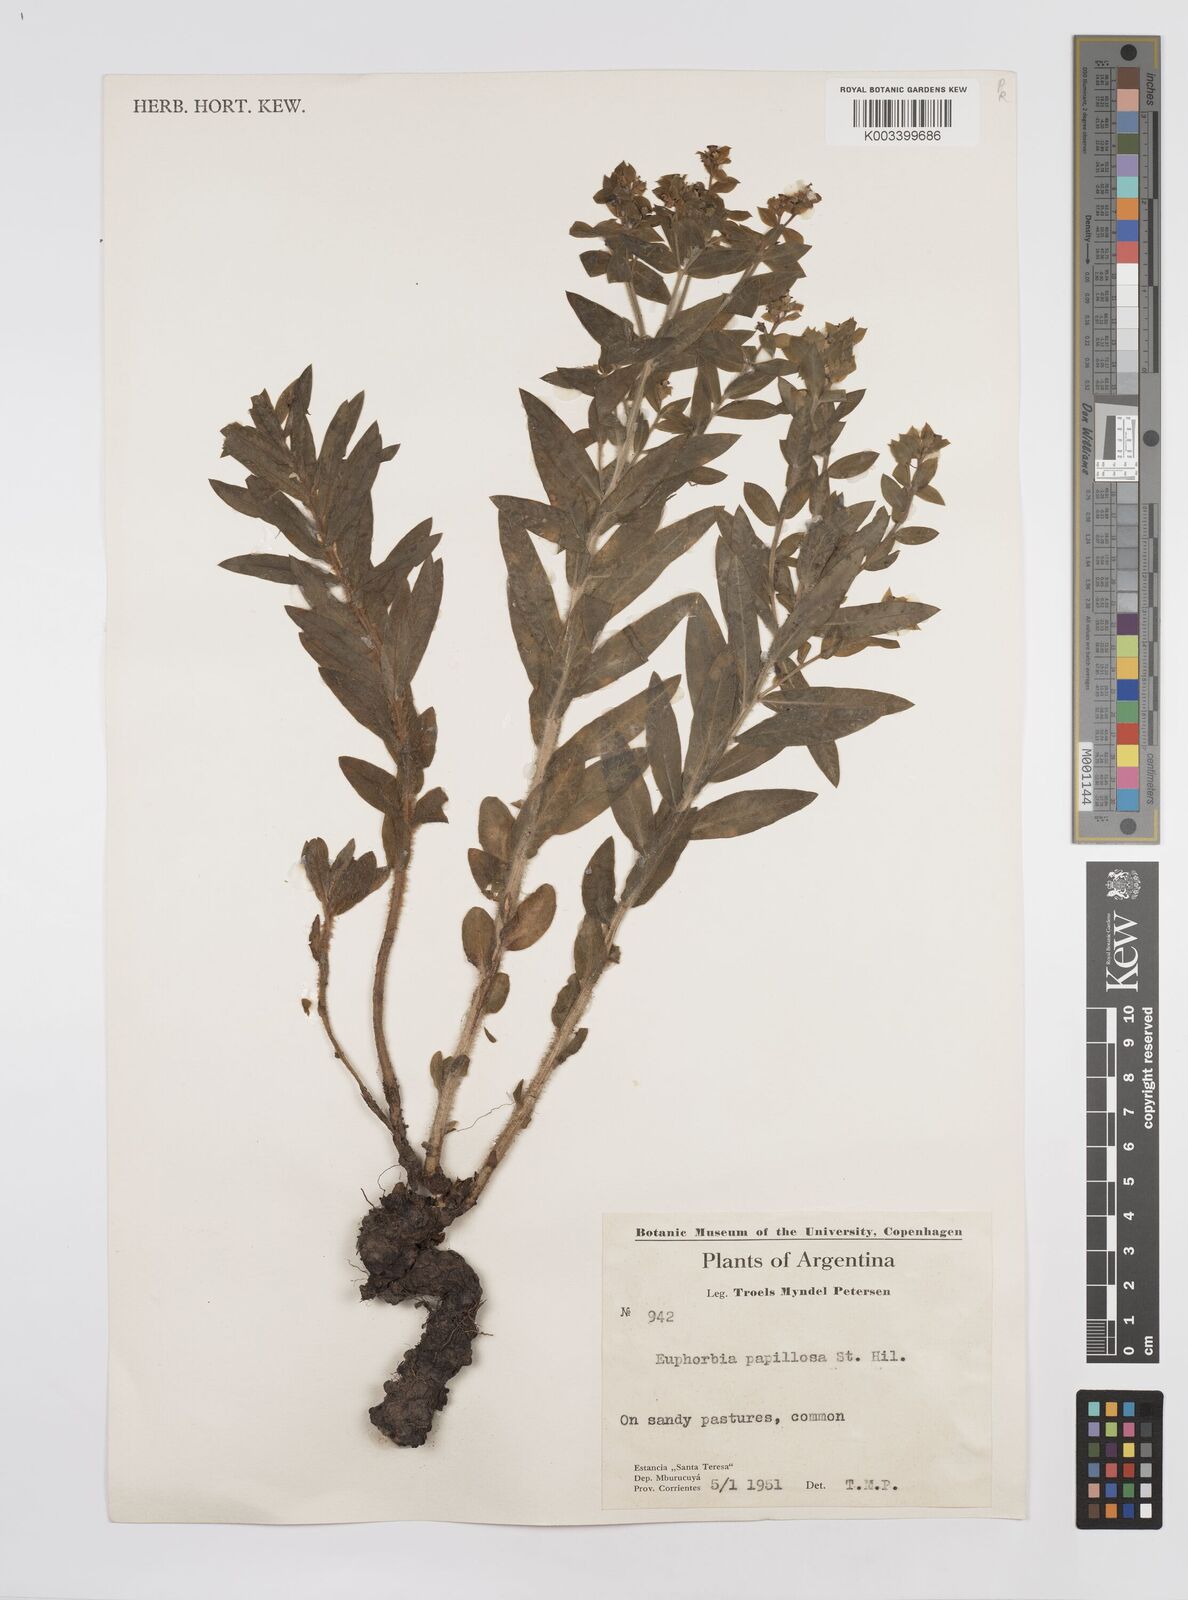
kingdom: Plantae
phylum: Tracheophyta
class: Magnoliopsida
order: Malpighiales
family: Euphorbiaceae
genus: Euphorbia
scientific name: Euphorbia
